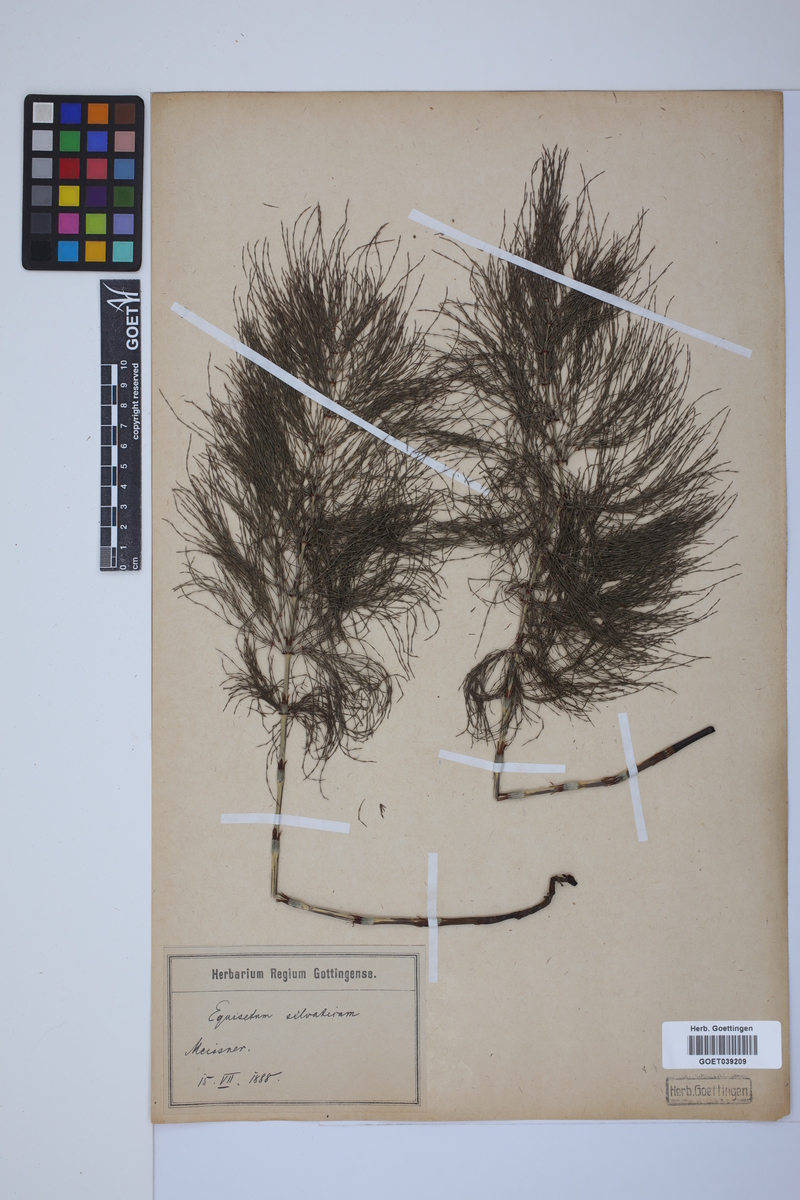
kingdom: Plantae
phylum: Tracheophyta
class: Polypodiopsida
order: Equisetales
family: Equisetaceae
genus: Equisetum
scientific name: Equisetum sylvaticum
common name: Wood horsetail
